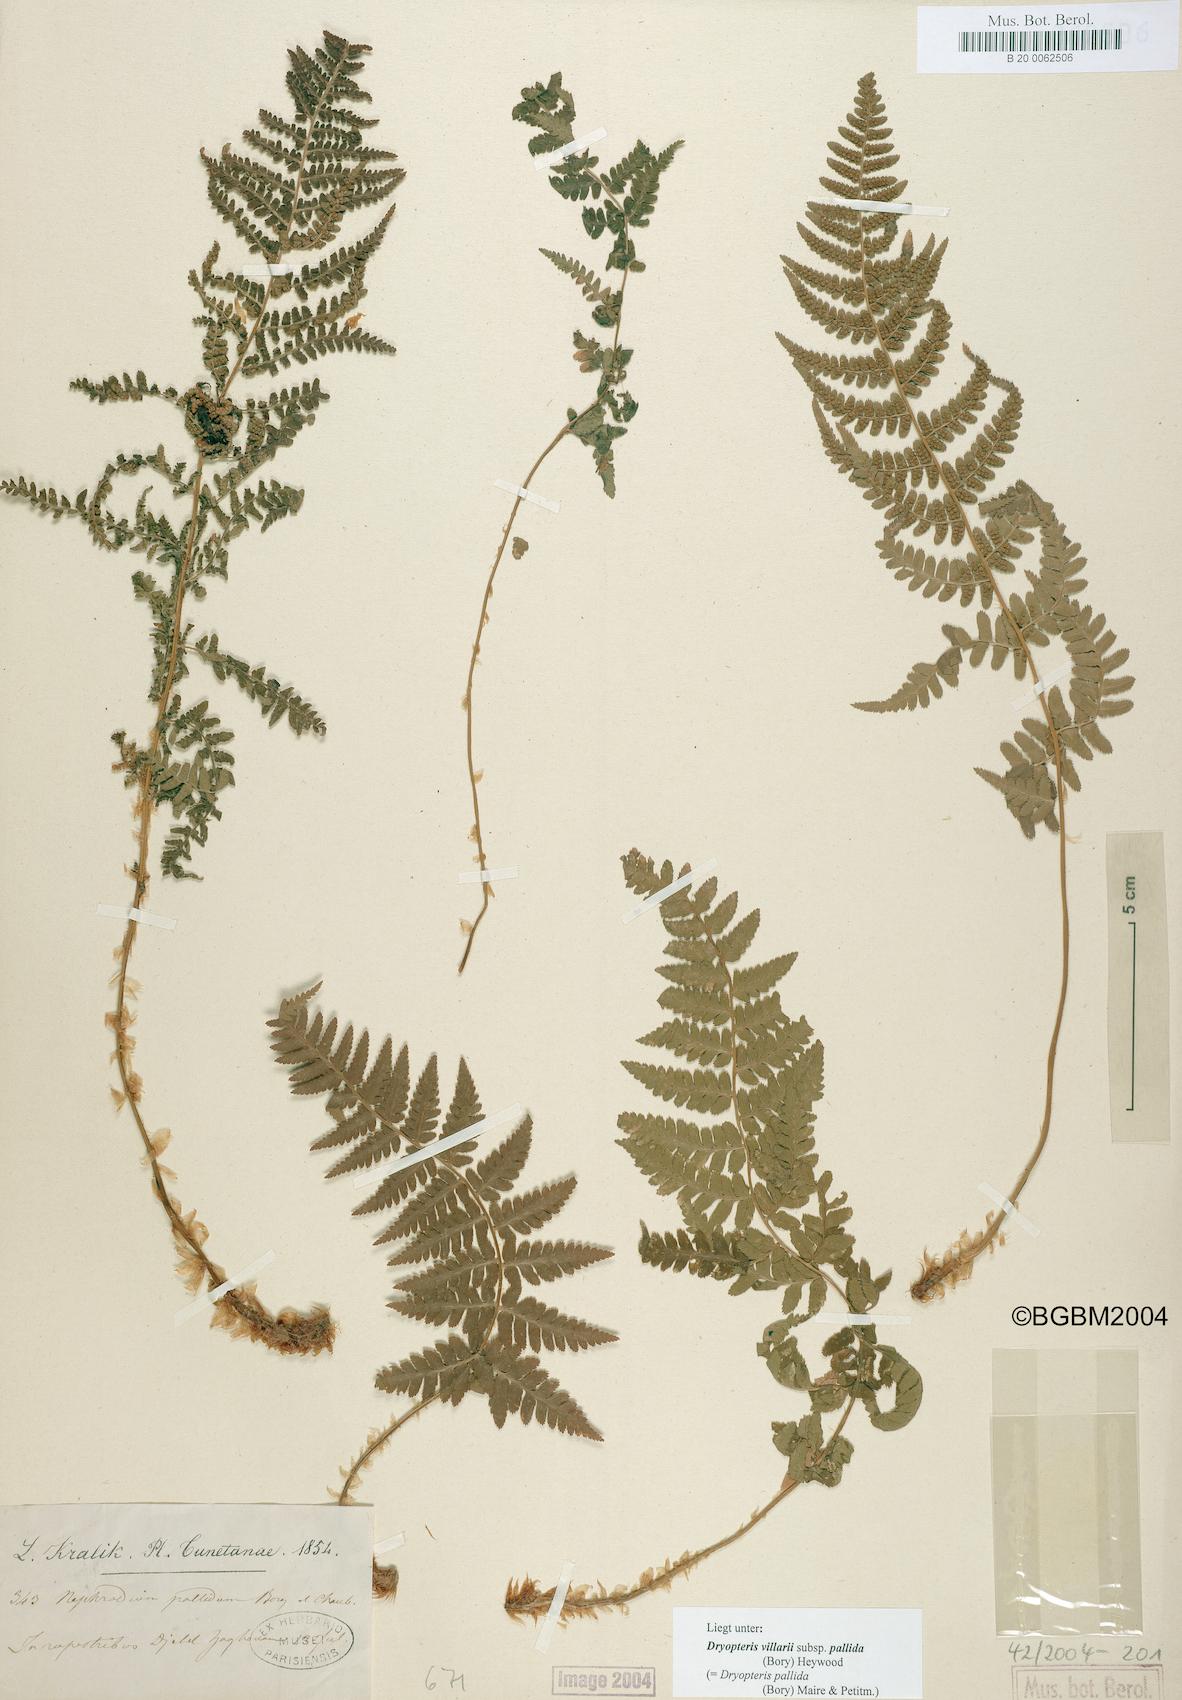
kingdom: Plantae
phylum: Tracheophyta
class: Polypodiopsida
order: Polypodiales
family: Dryopteridaceae
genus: Dryopteris
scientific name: Dryopteris pallida
